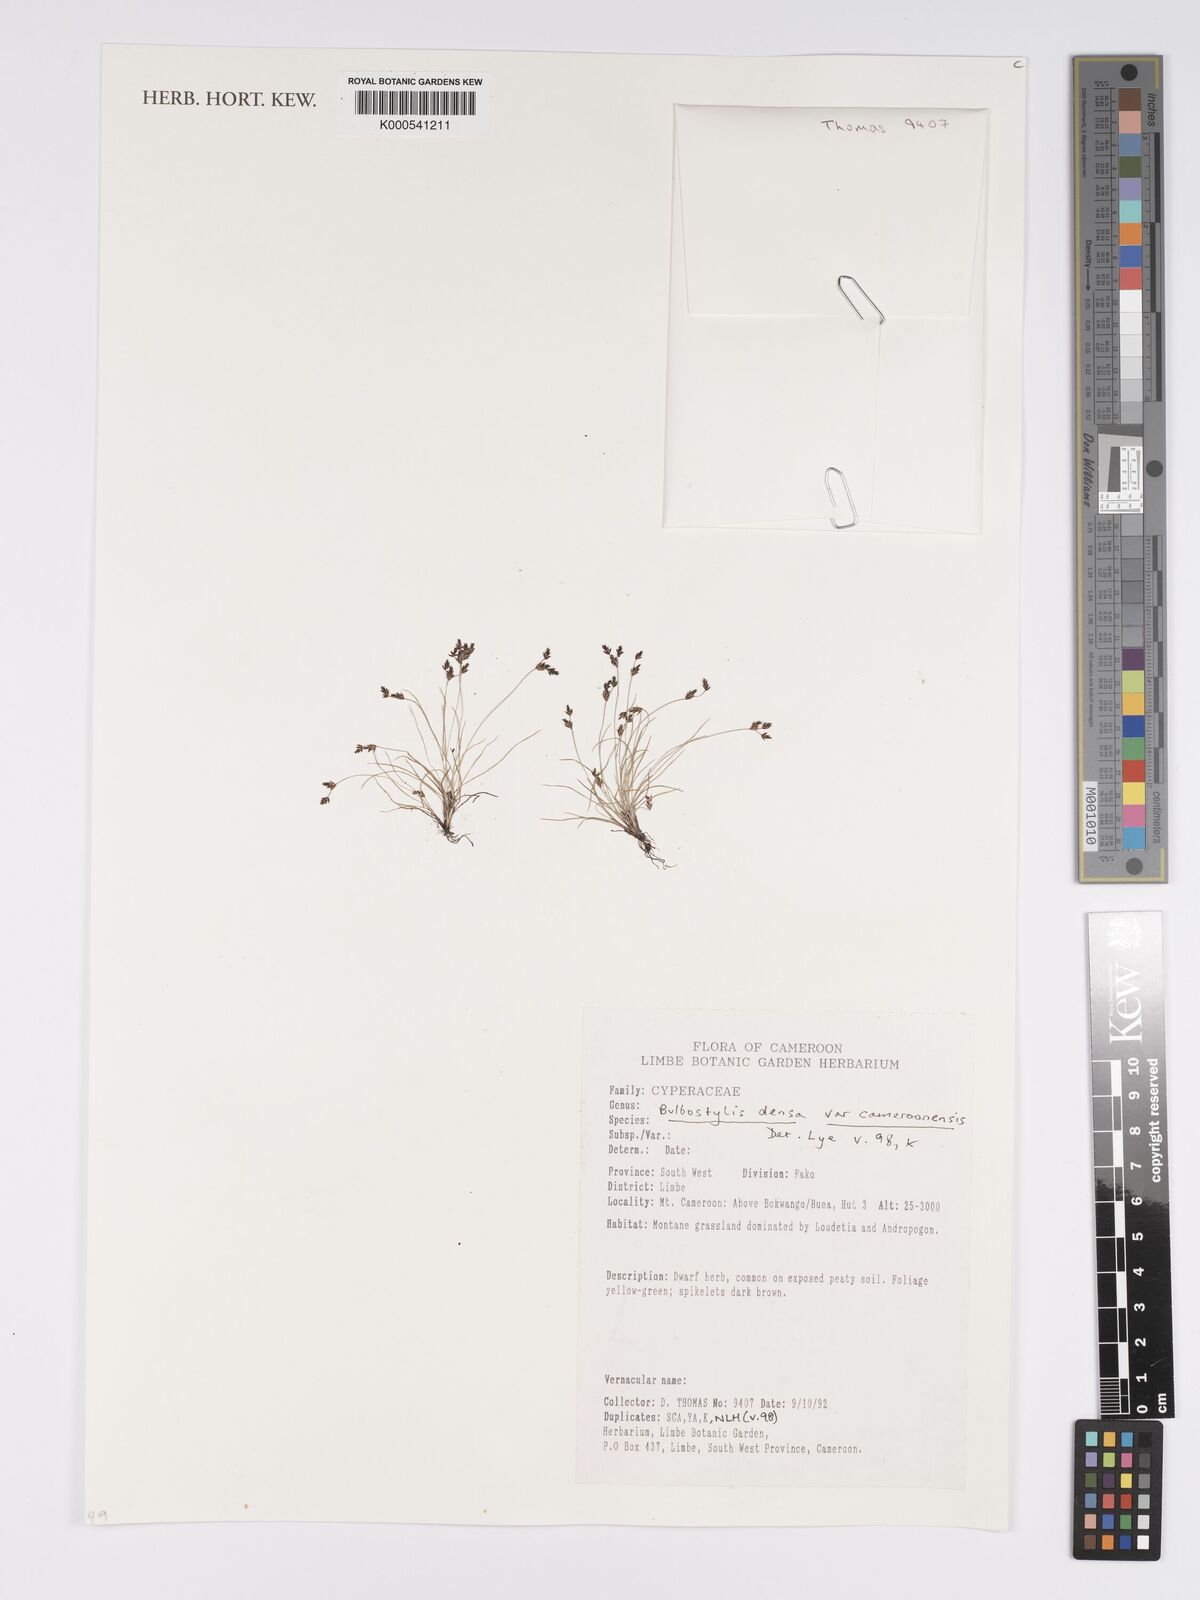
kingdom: Plantae
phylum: Tracheophyta
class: Liliopsida
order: Poales
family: Cyperaceae
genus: Bulbostylis
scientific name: Bulbostylis densa
